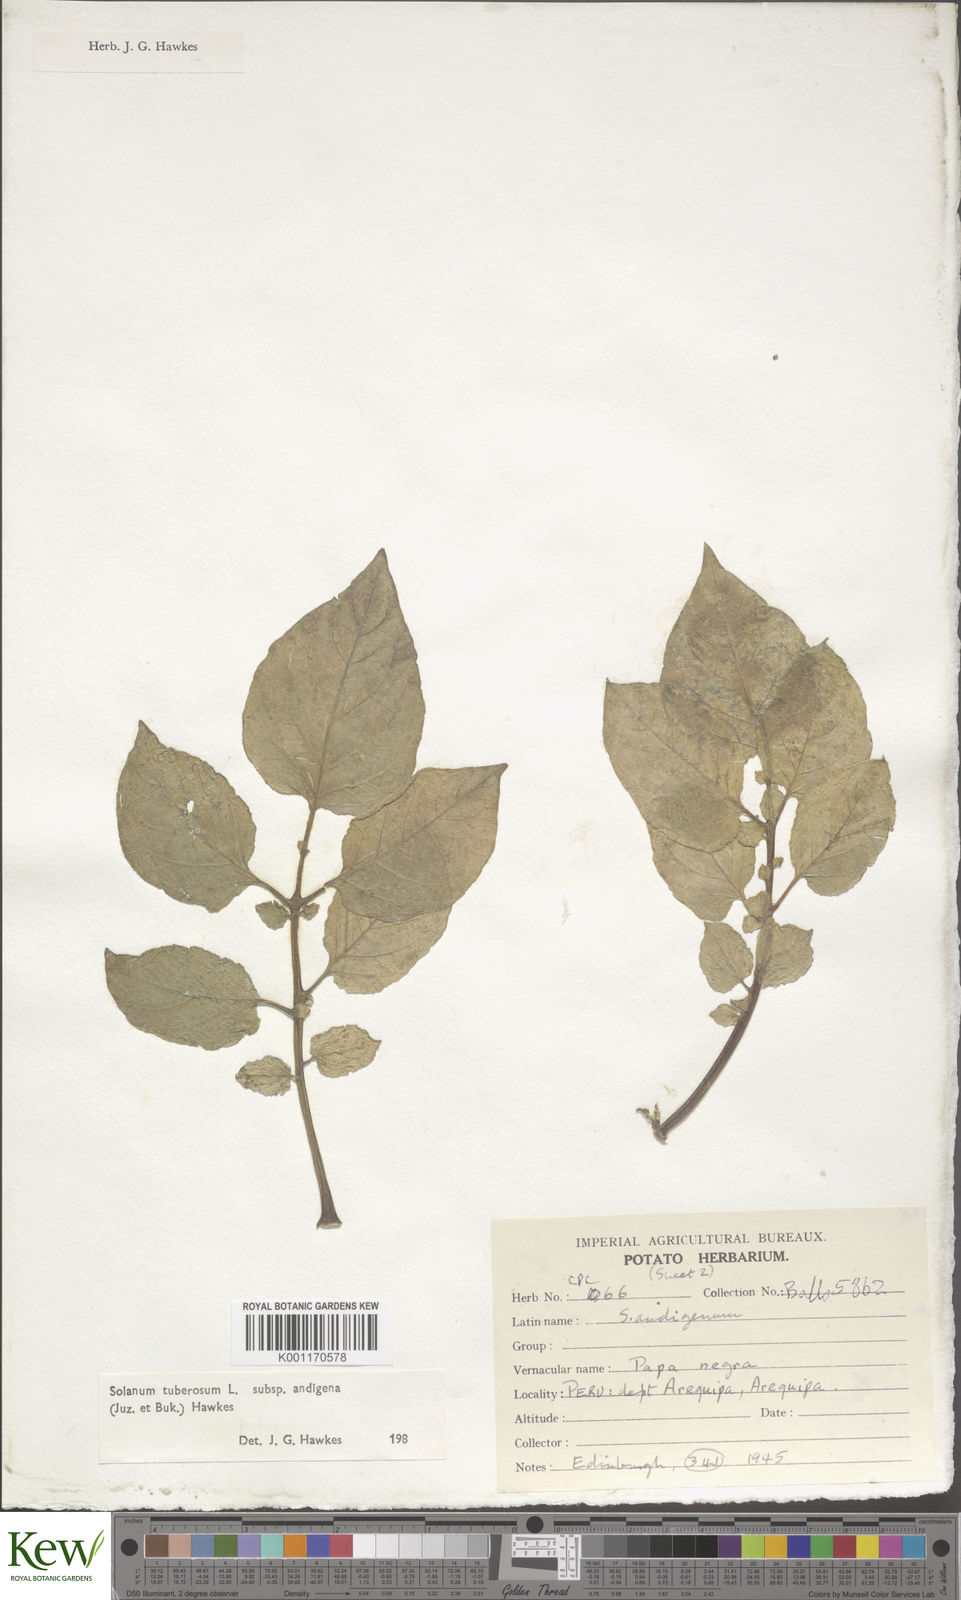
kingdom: Plantae
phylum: Tracheophyta
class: Magnoliopsida
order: Solanales
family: Solanaceae
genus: Solanum
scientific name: Solanum tuberosum
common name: Potato
